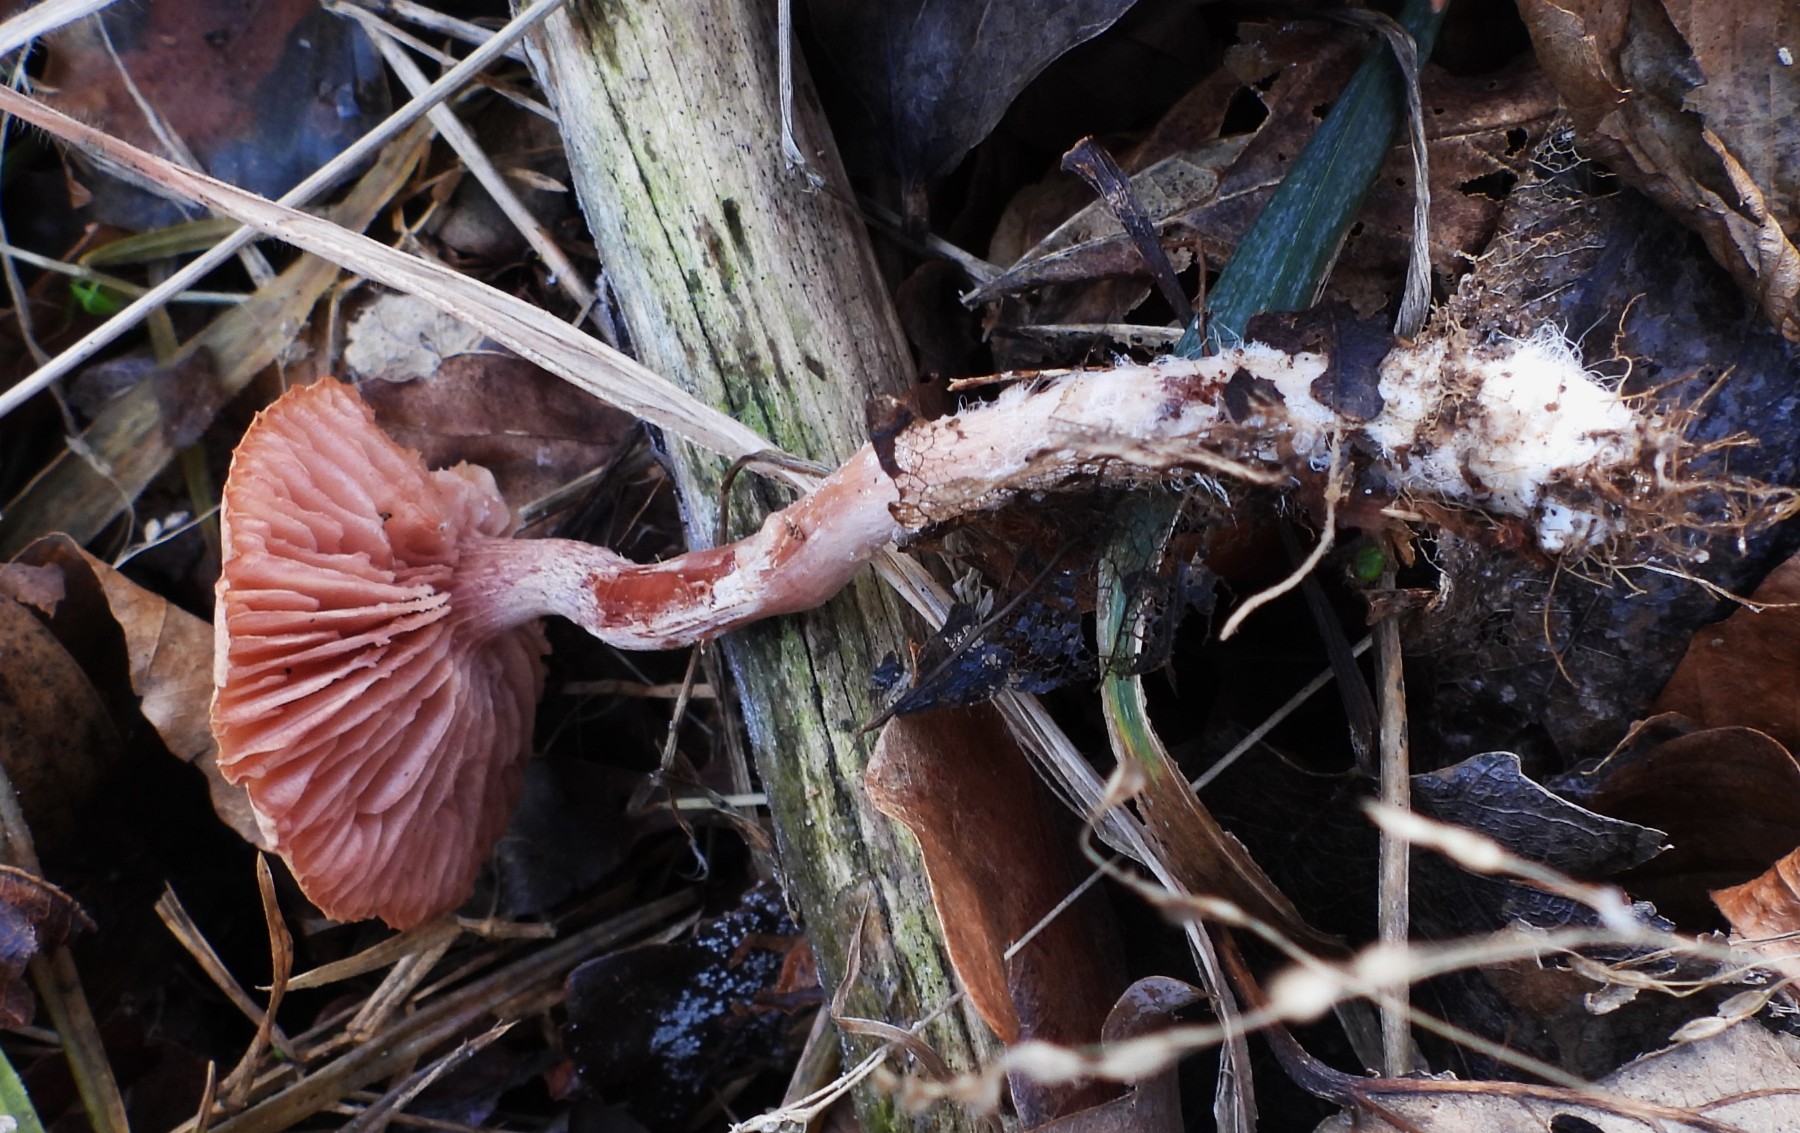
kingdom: Fungi
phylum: Basidiomycota
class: Agaricomycetes
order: Agaricales
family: Hydnangiaceae
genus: Laccaria
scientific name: Laccaria amethystina
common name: violet ametysthat
